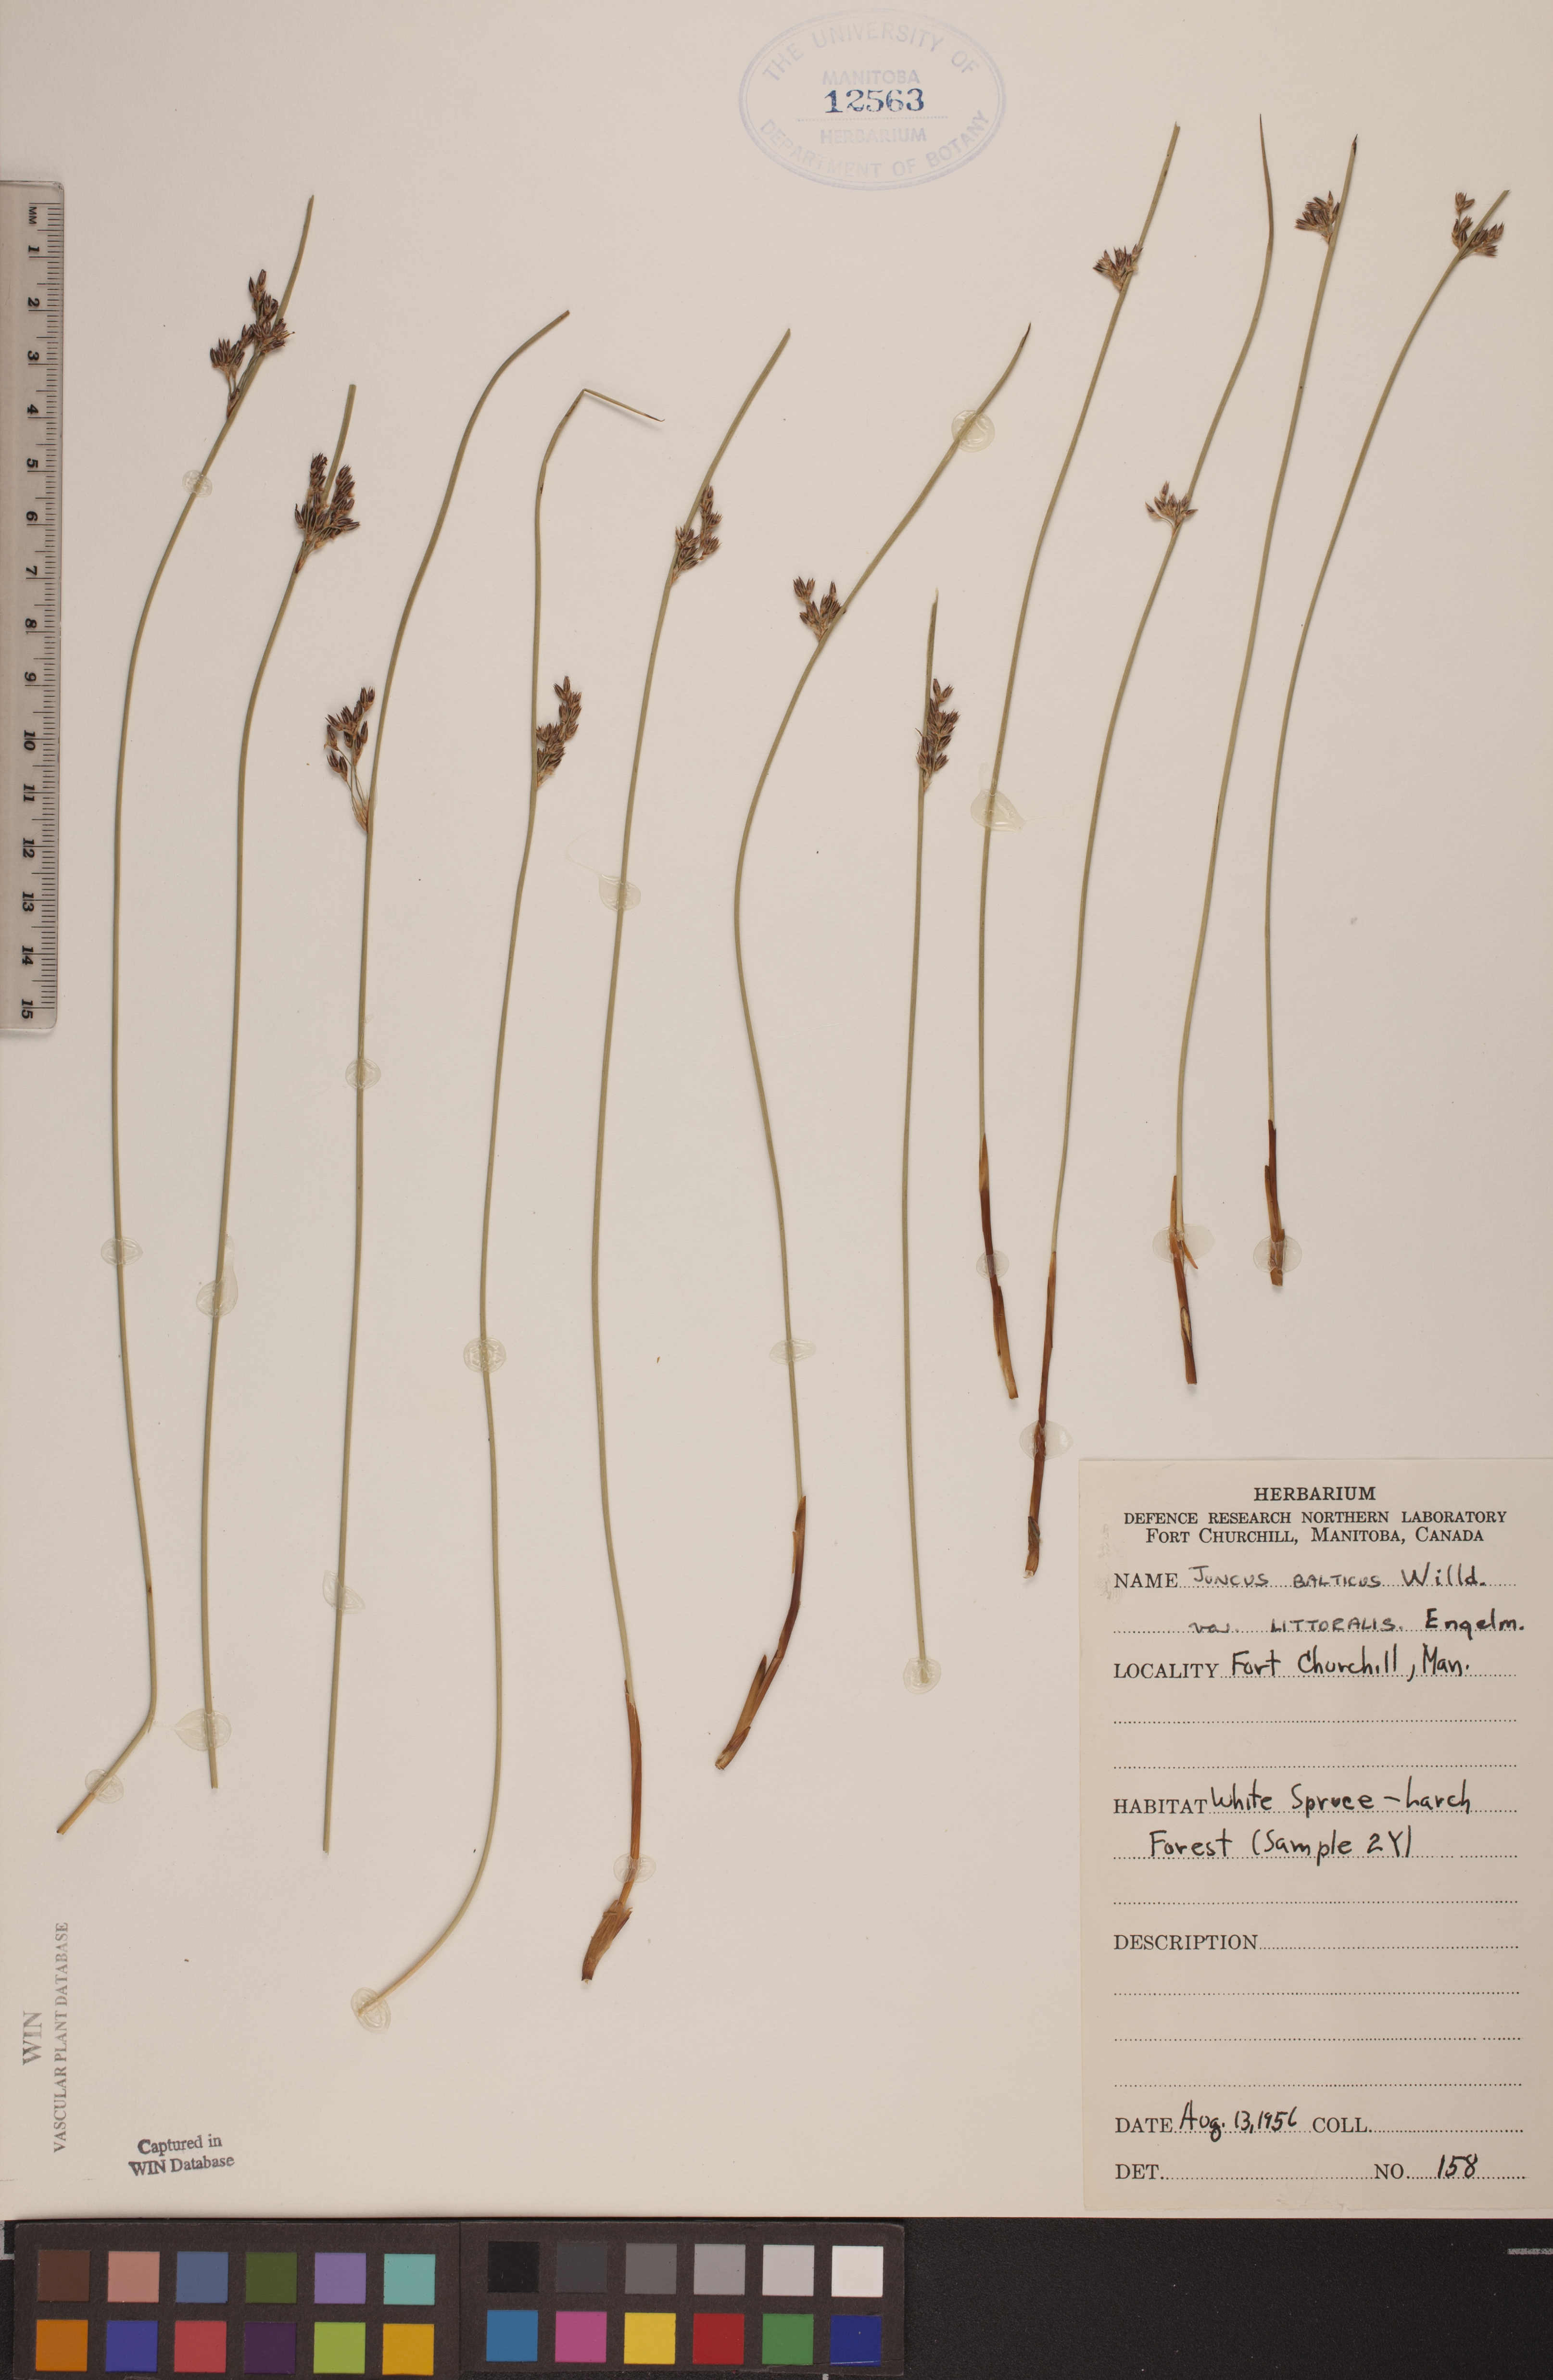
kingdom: Plantae
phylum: Tracheophyta
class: Liliopsida
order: Poales
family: Juncaceae
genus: Juncus
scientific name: Juncus balticus
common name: Baltic rush
